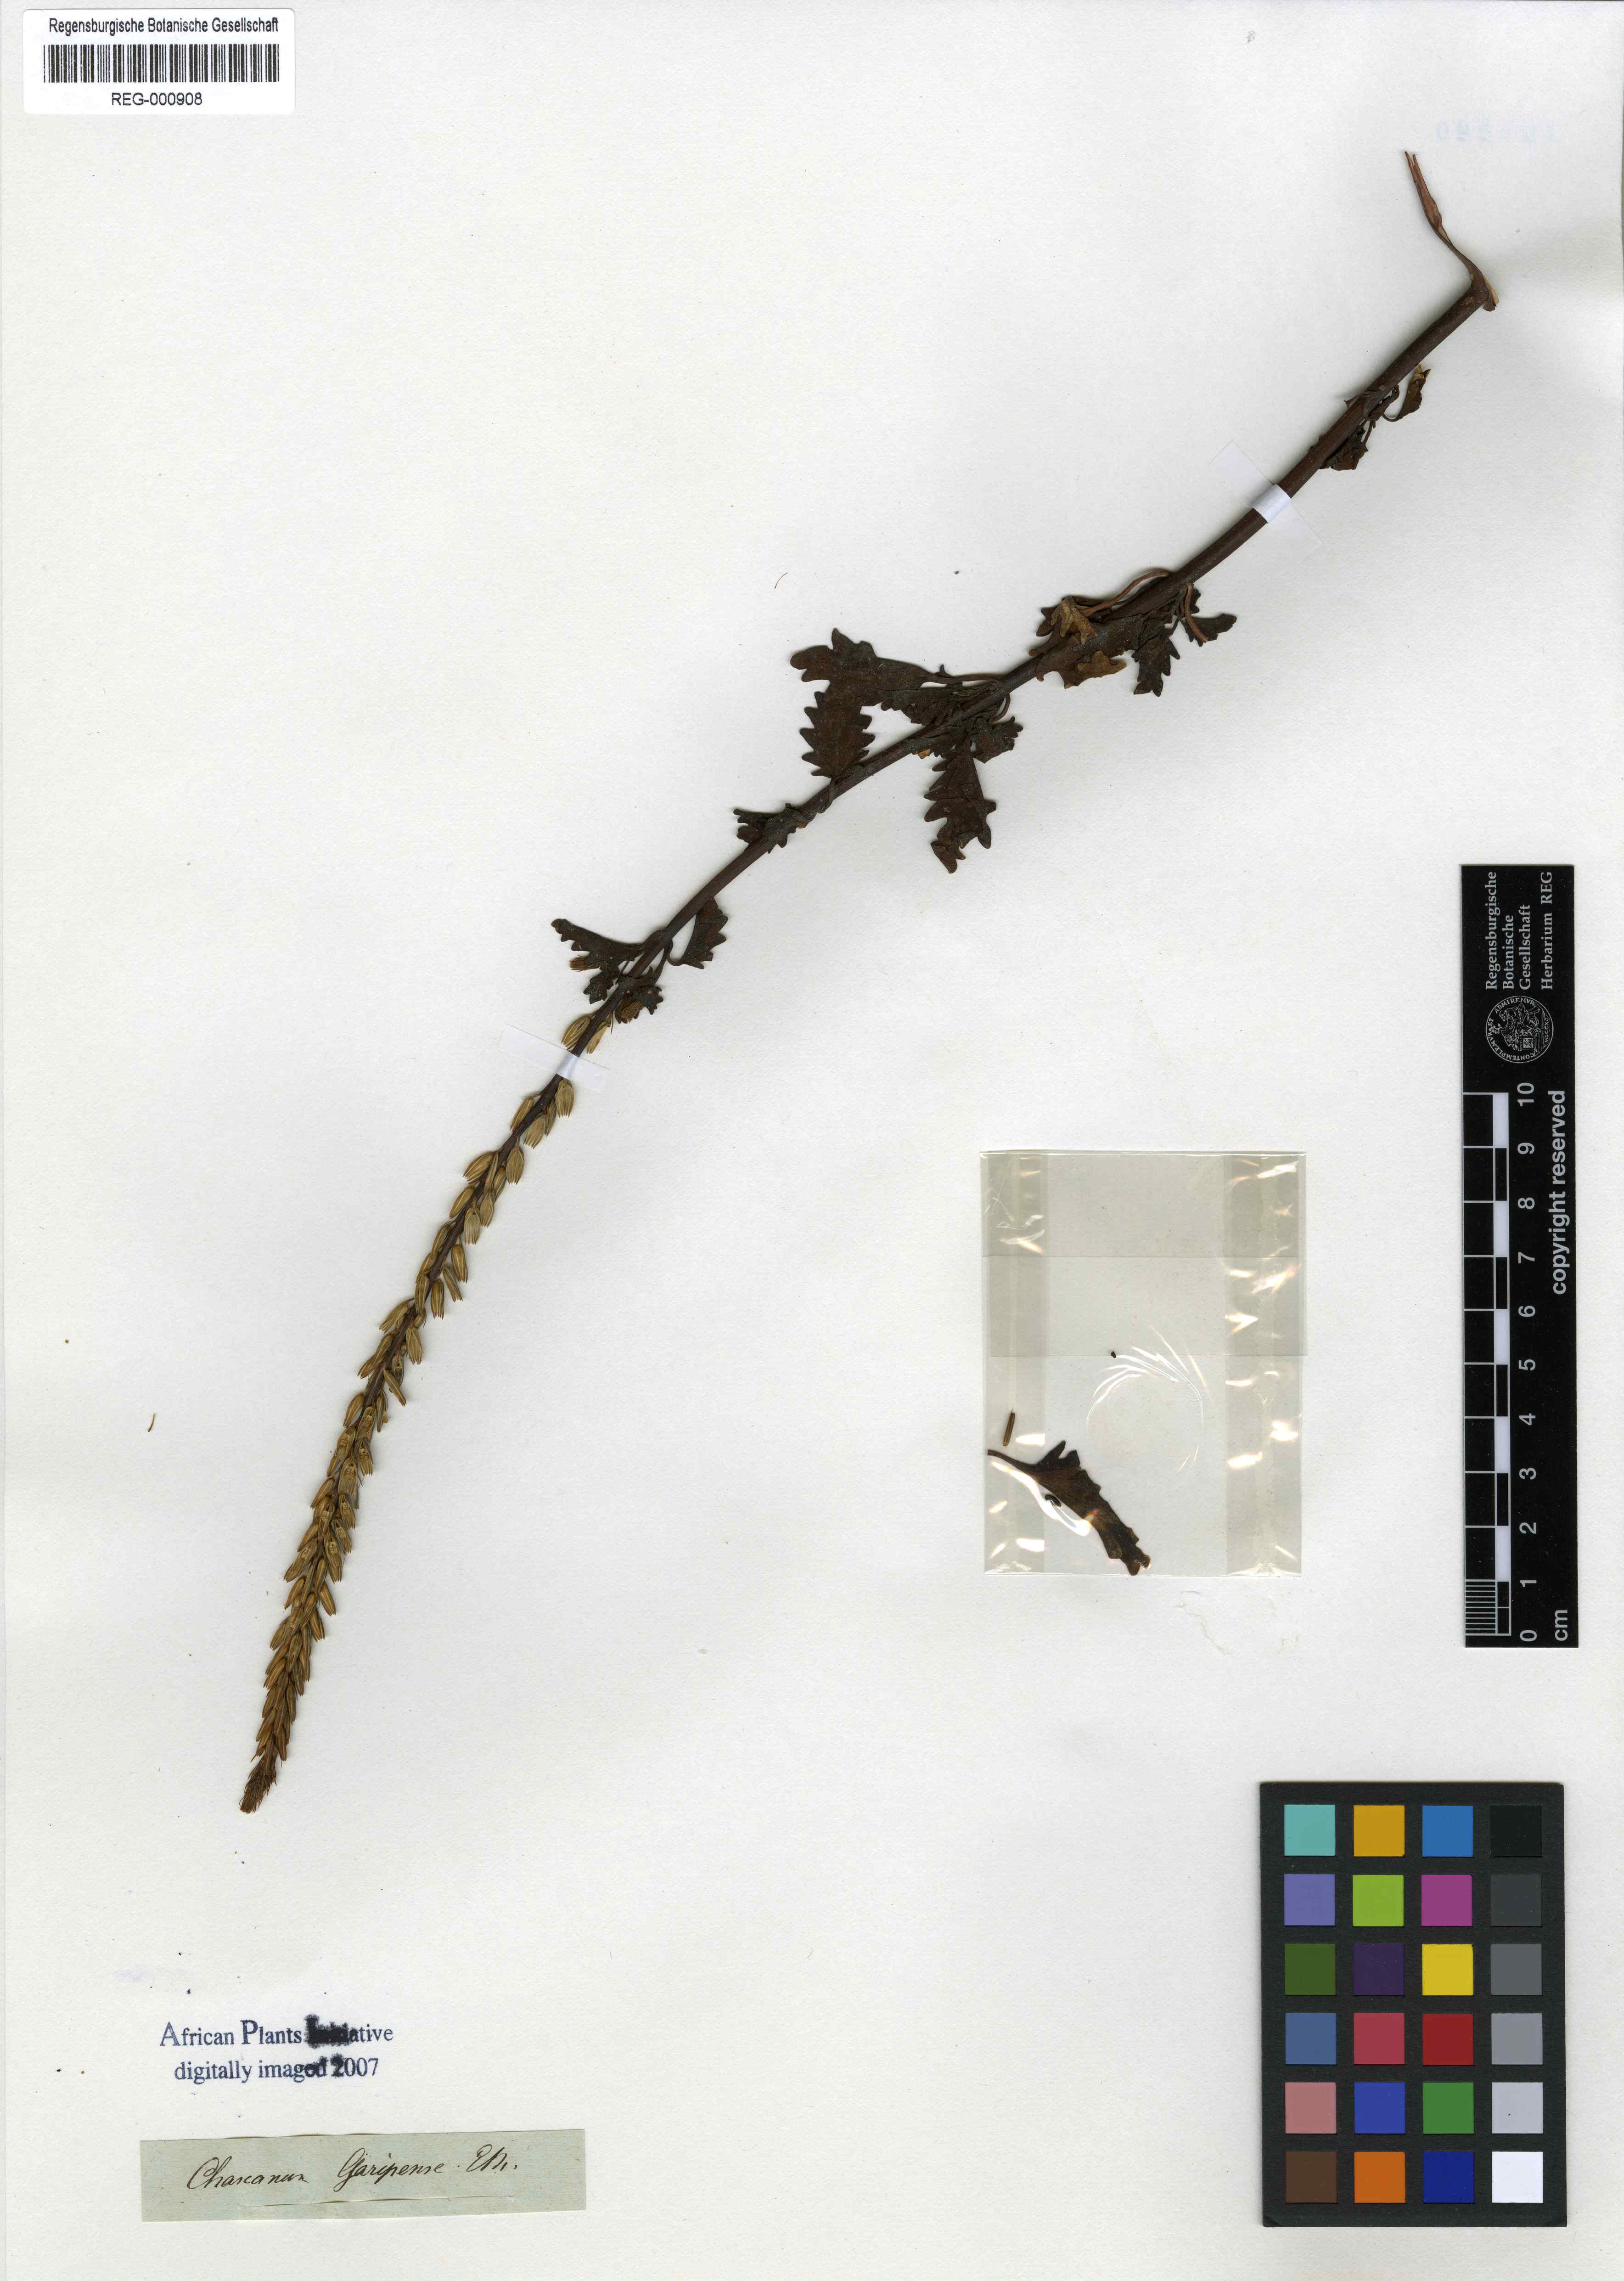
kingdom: Plantae
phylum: Tracheophyta
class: Magnoliopsida
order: Lamiales
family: Verbenaceae
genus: Chascanum
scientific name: Chascanum garipense
